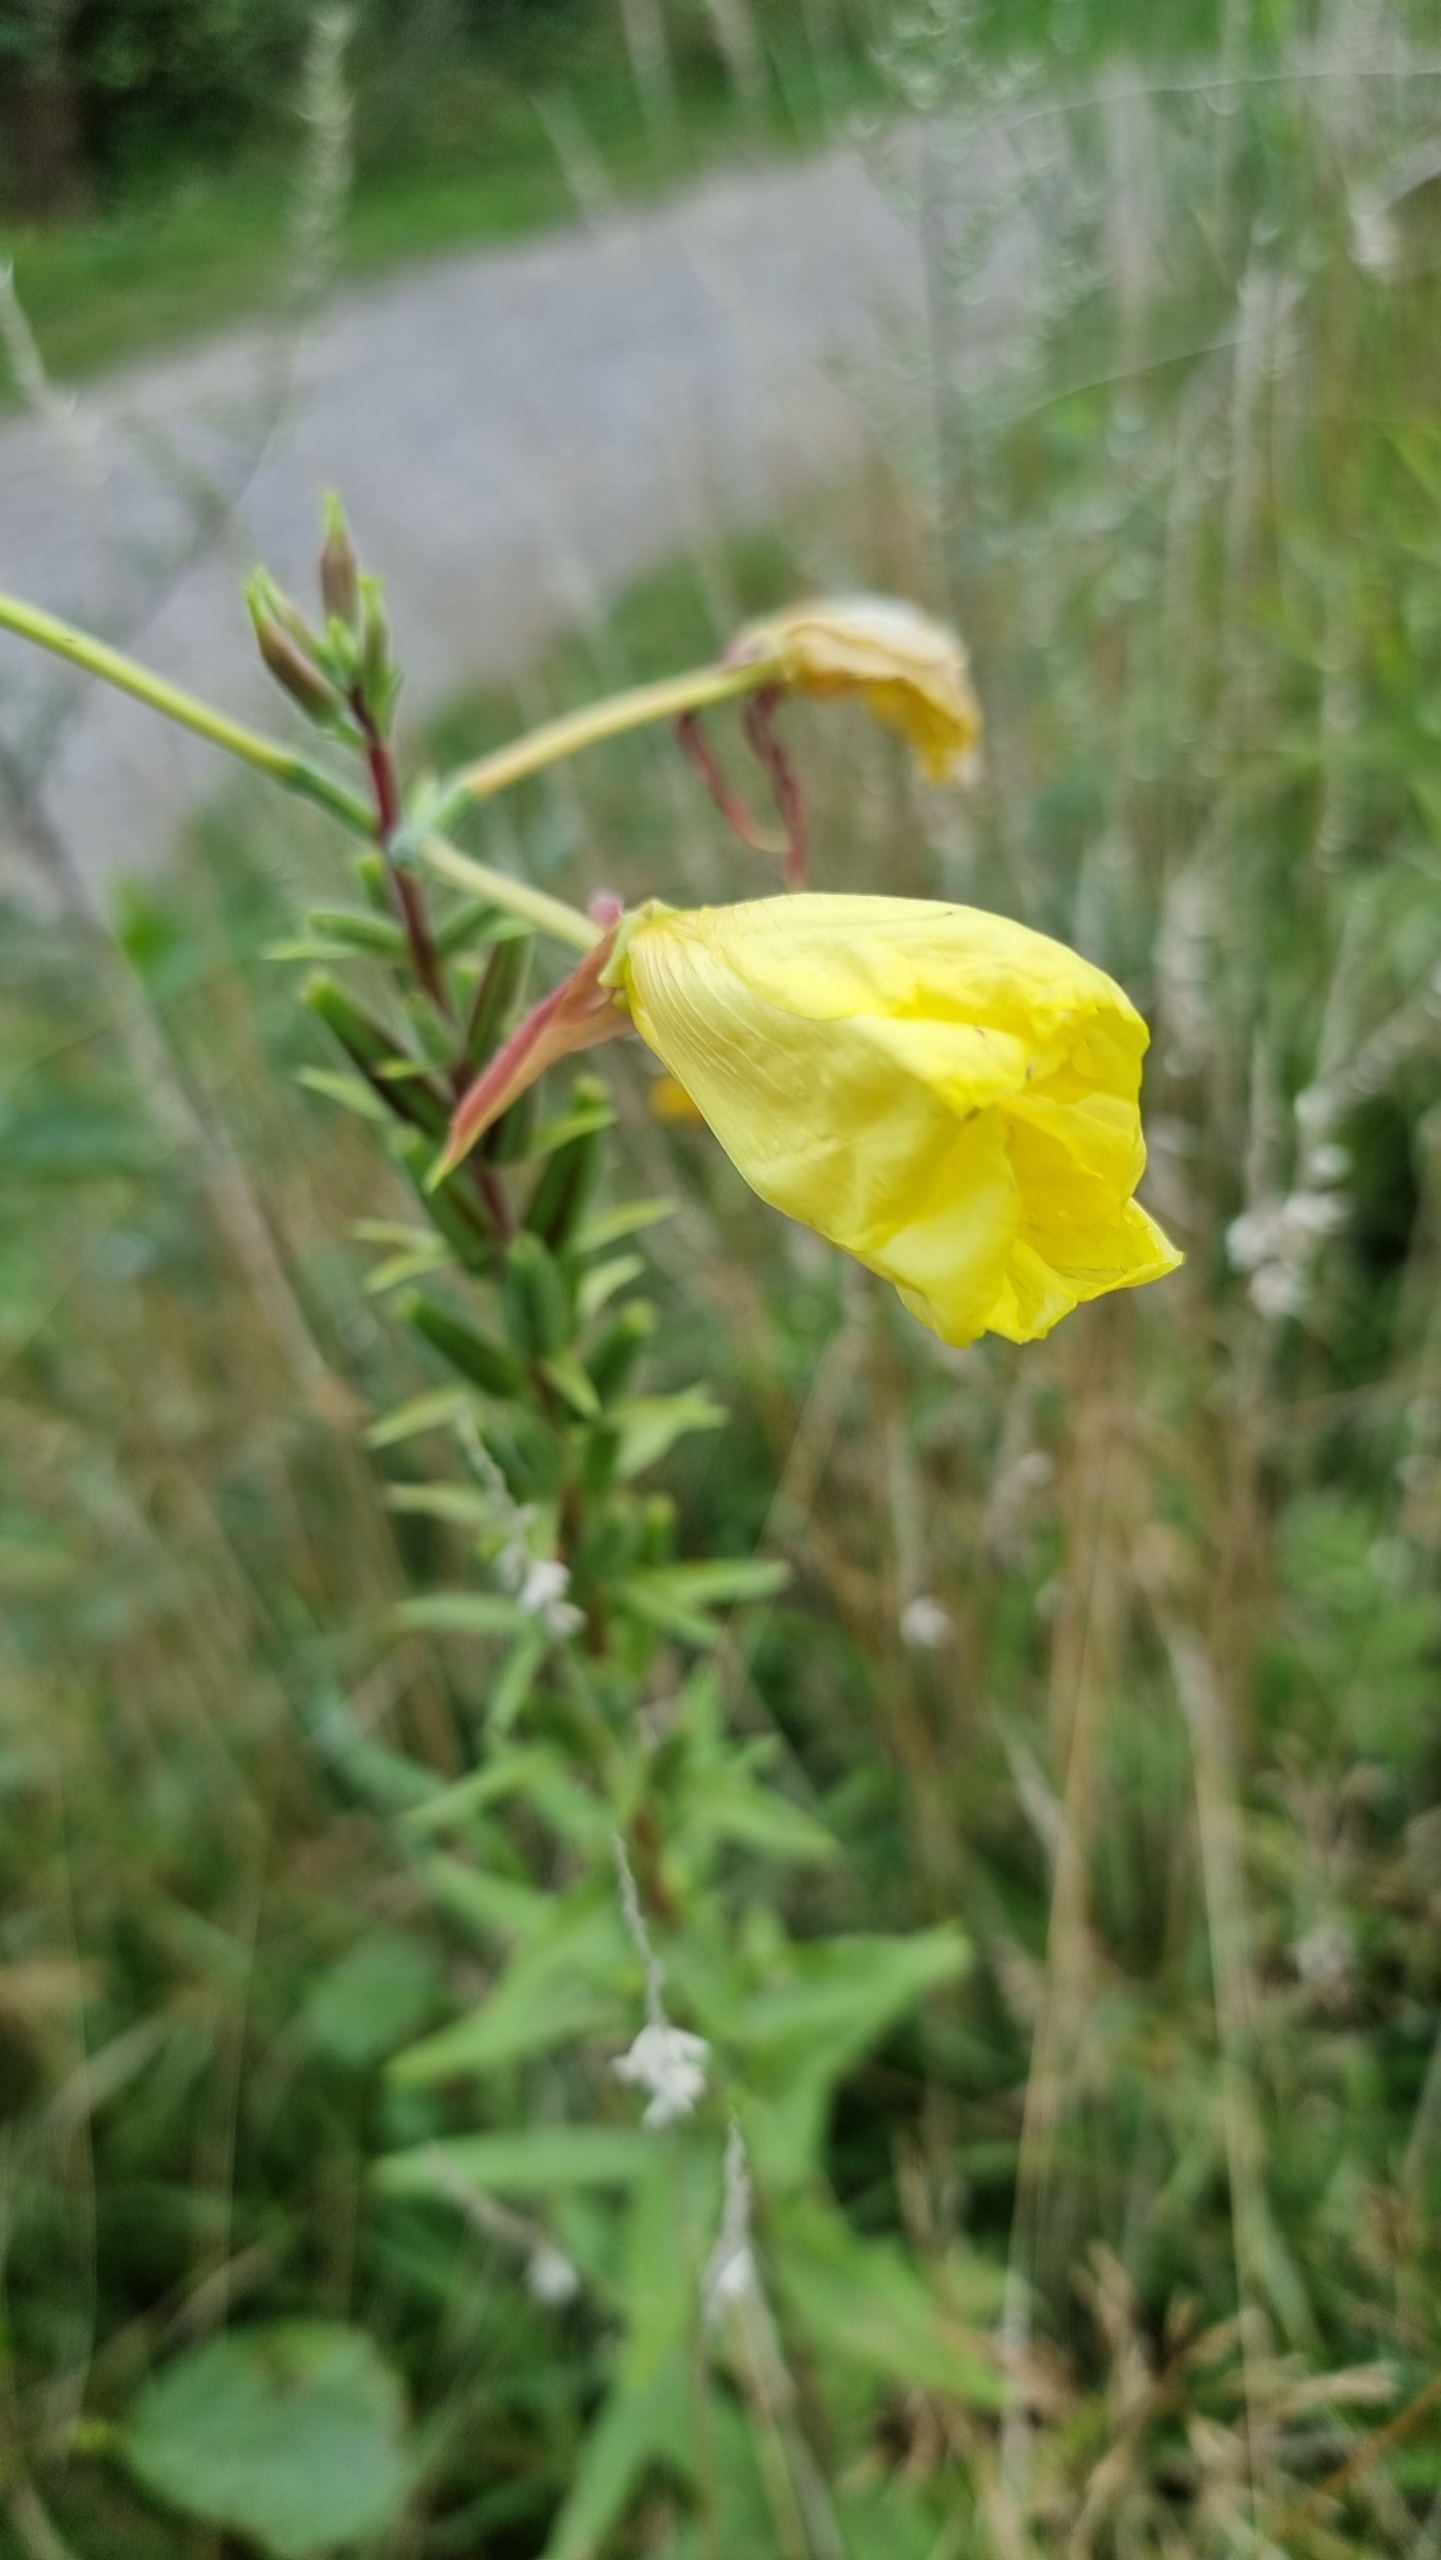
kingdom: Plantae
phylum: Tracheophyta
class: Magnoliopsida
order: Myrtales
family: Onagraceae
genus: Oenothera
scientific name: Oenothera glazioviana
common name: Kæmpe-natlys
